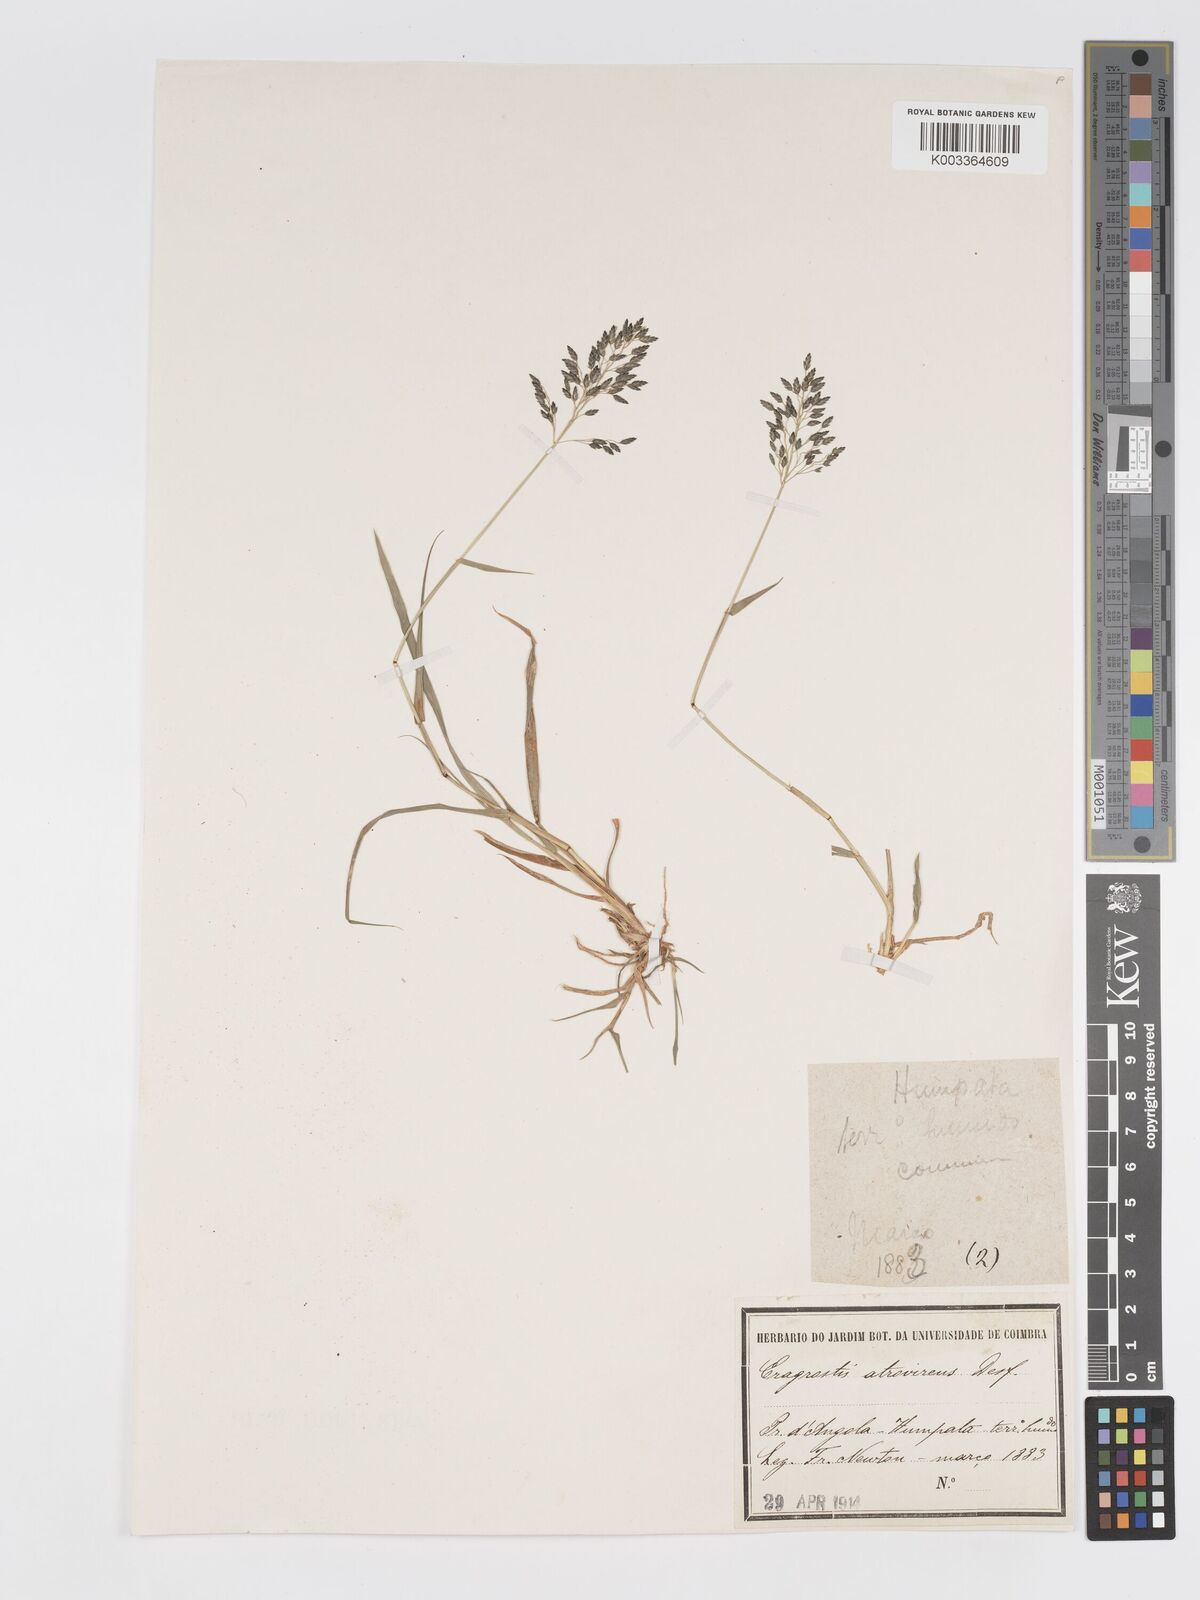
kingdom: Plantae
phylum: Tracheophyta
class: Liliopsida
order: Poales
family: Poaceae
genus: Eragrostis
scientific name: Eragrostis patentipilosa
